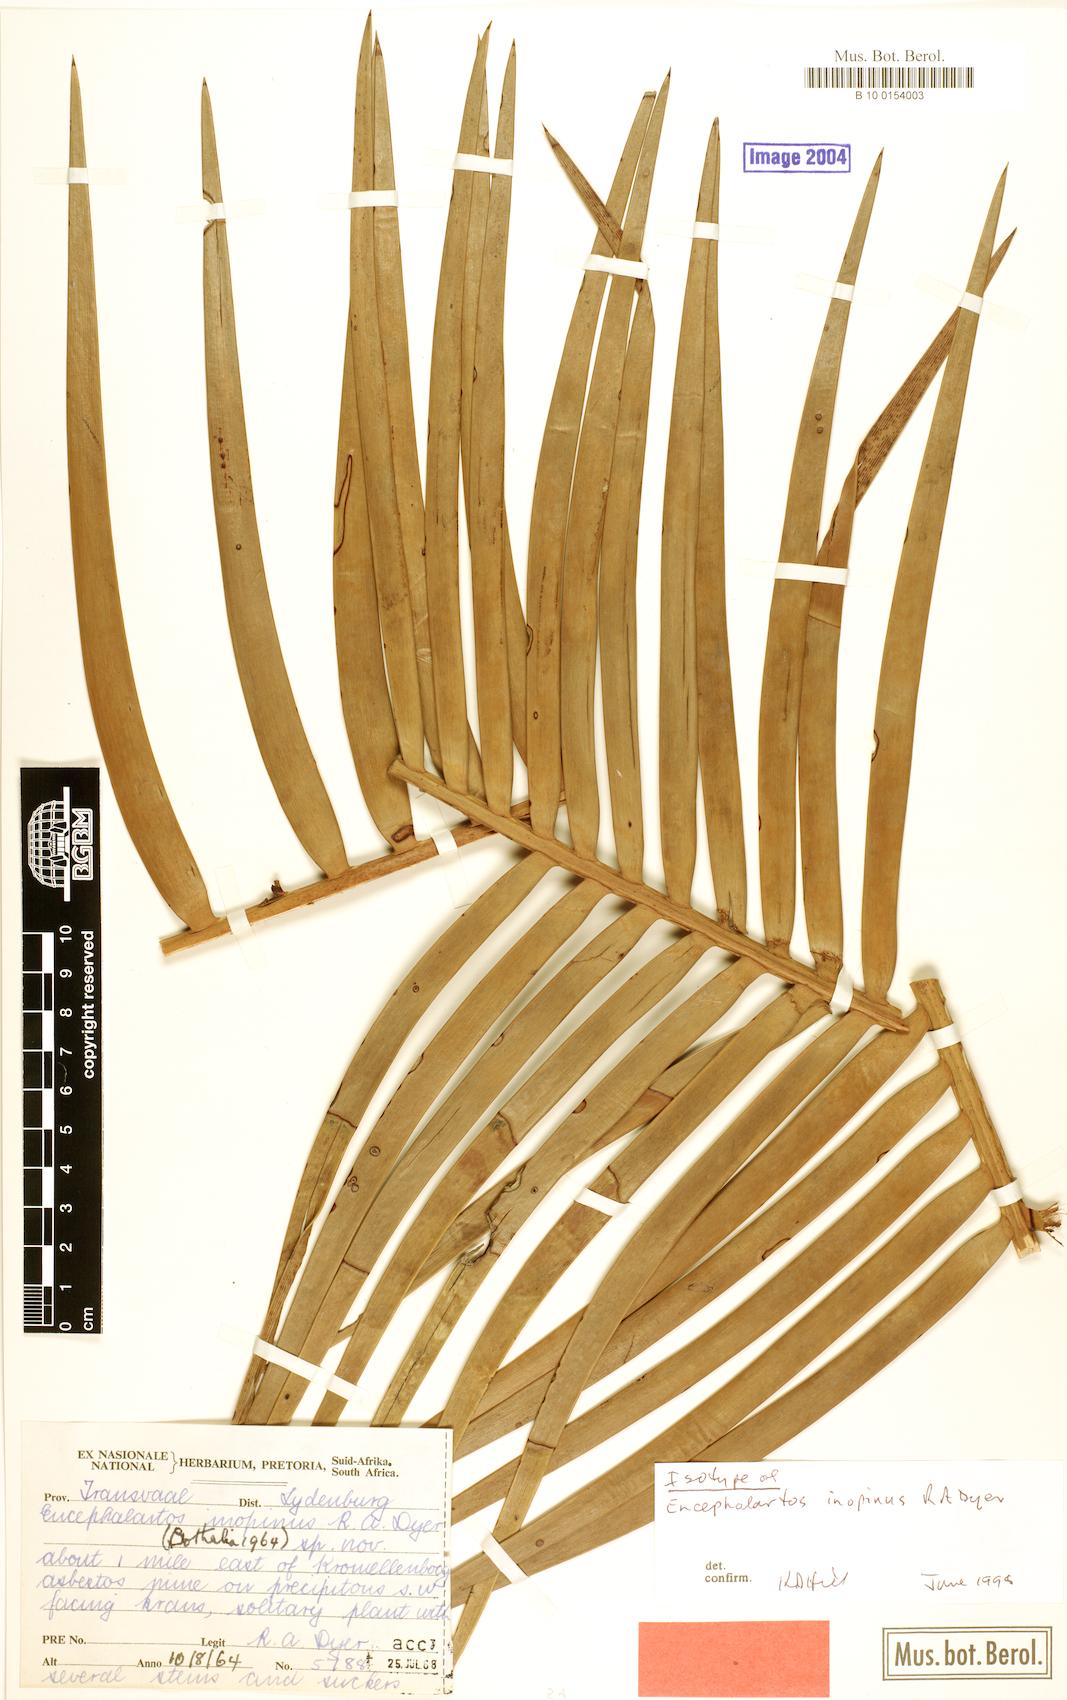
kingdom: Plantae
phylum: Tracheophyta
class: Cycadopsida
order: Cycadales
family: Zamiaceae
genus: Encephalartos
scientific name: Encephalartos inopinus
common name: Lydenburg cycad
